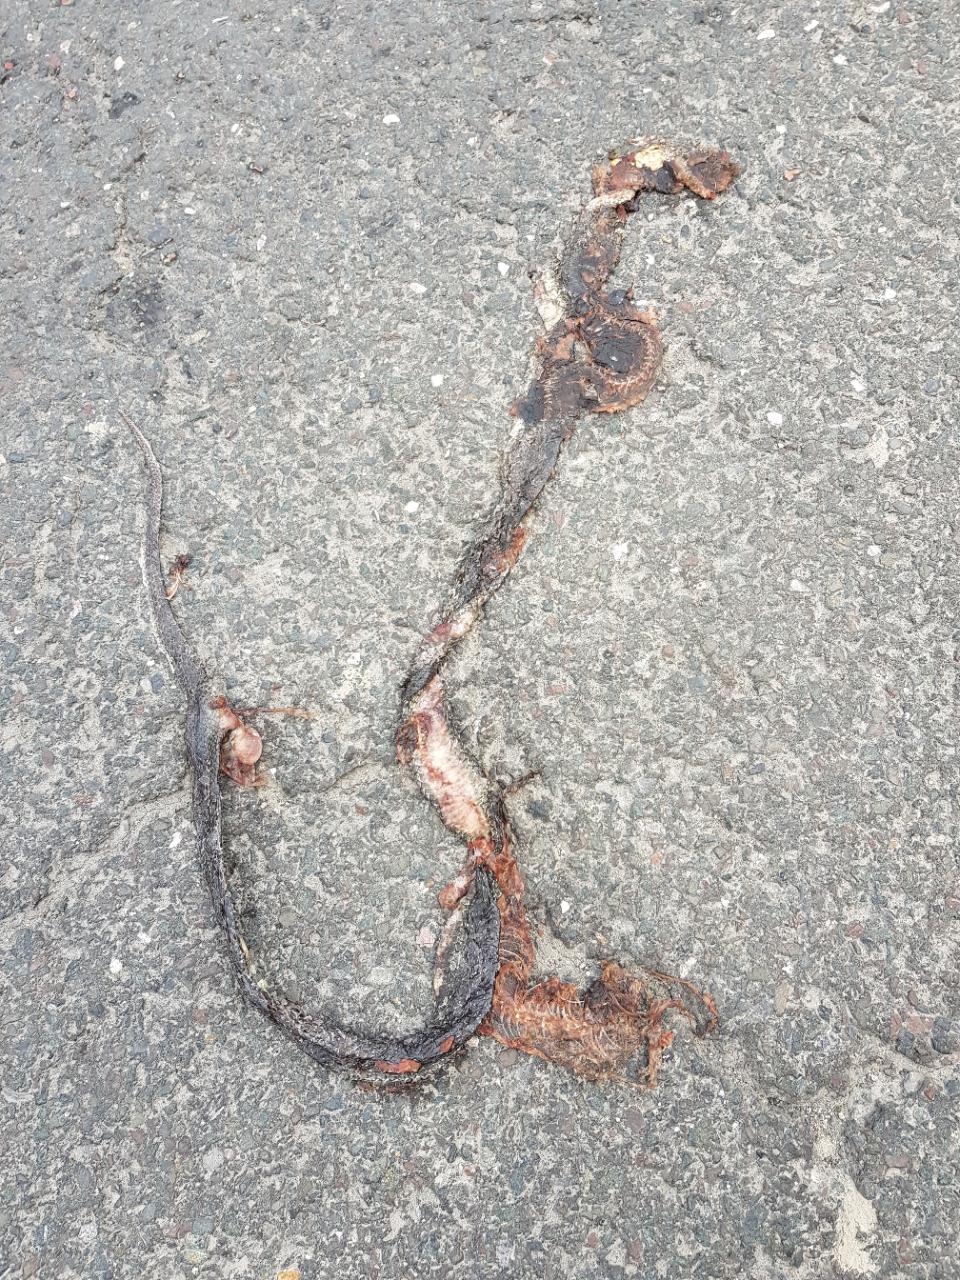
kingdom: Animalia
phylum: Chordata
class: Squamata
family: Colubridae
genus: Zamenis
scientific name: Zamenis longissimus
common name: Aesculapean snake
